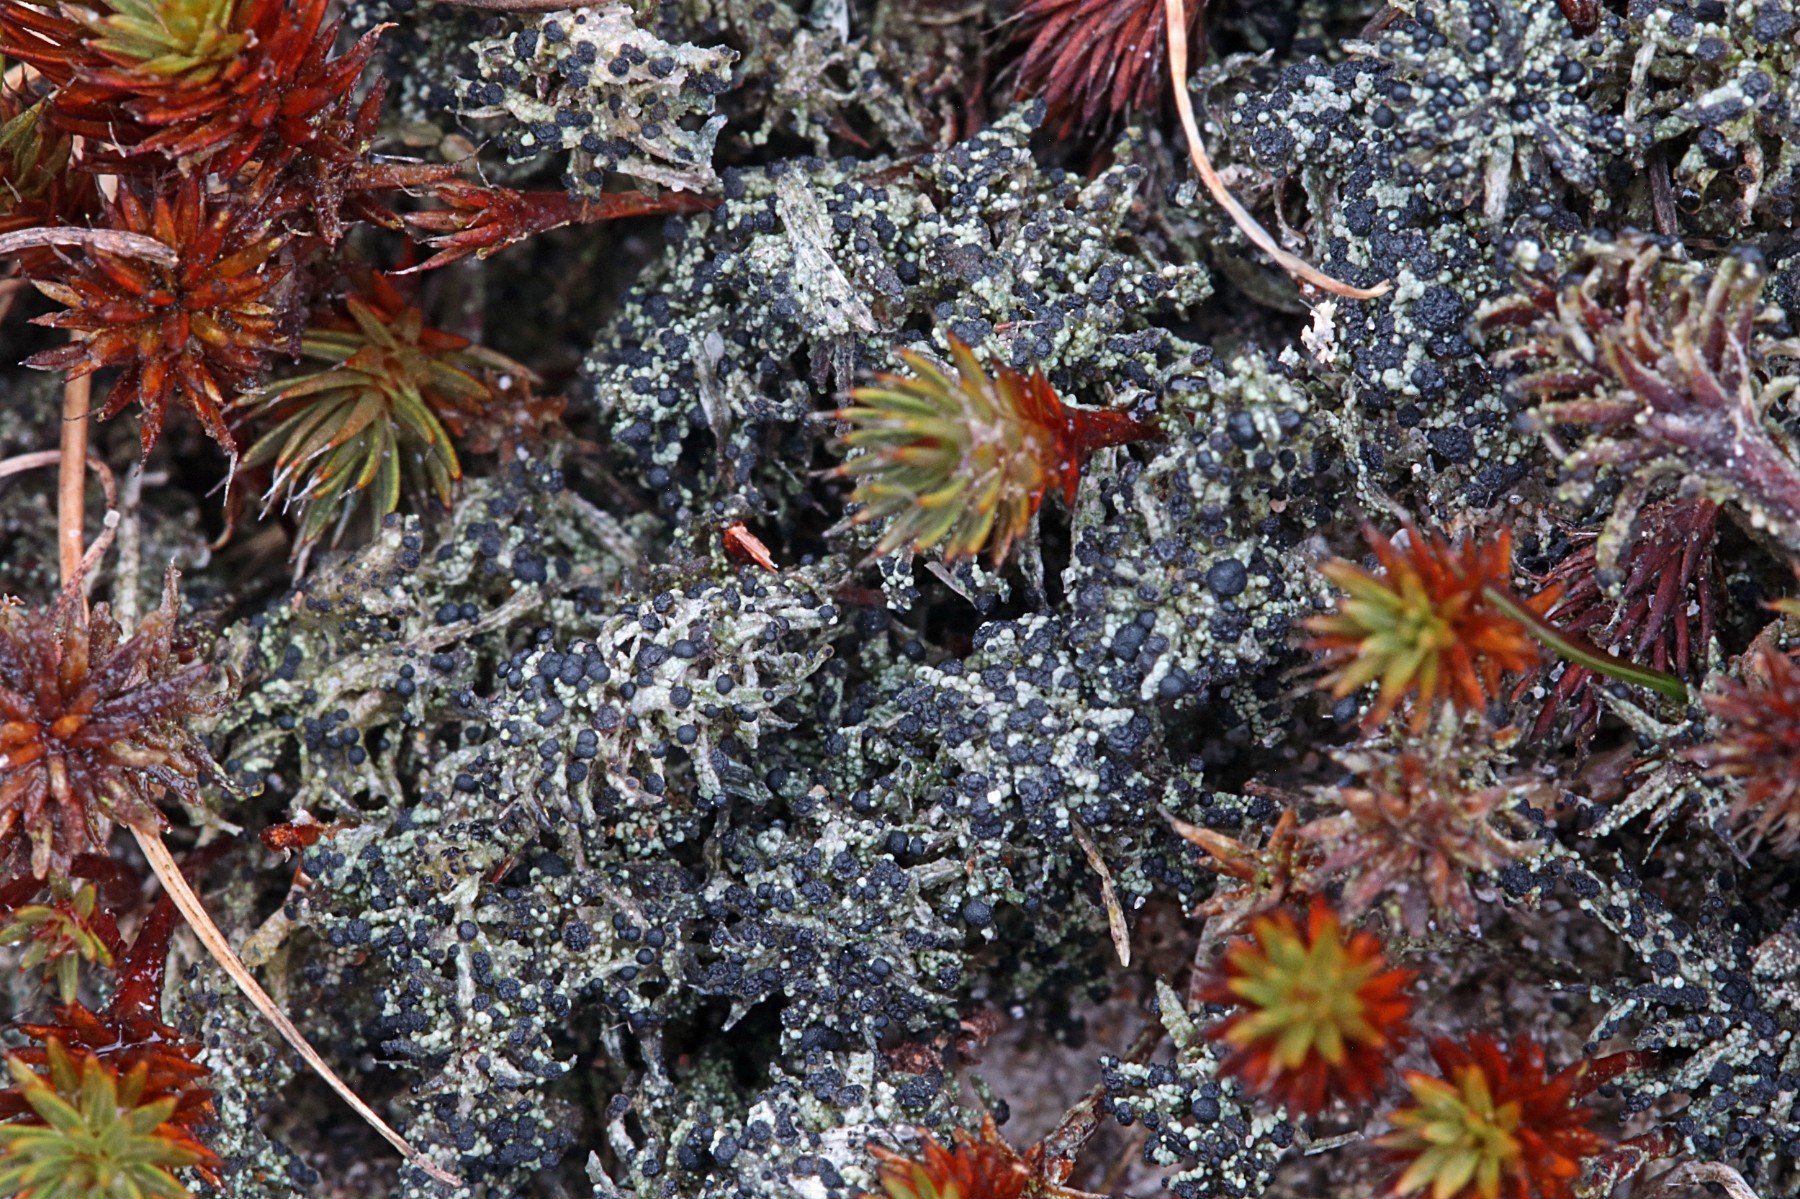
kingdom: Fungi
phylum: Ascomycota
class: Lecanoromycetes
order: Lecanorales
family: Byssolomataceae
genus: Micarea
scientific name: Micarea lignaria
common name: tørve-knaplav
